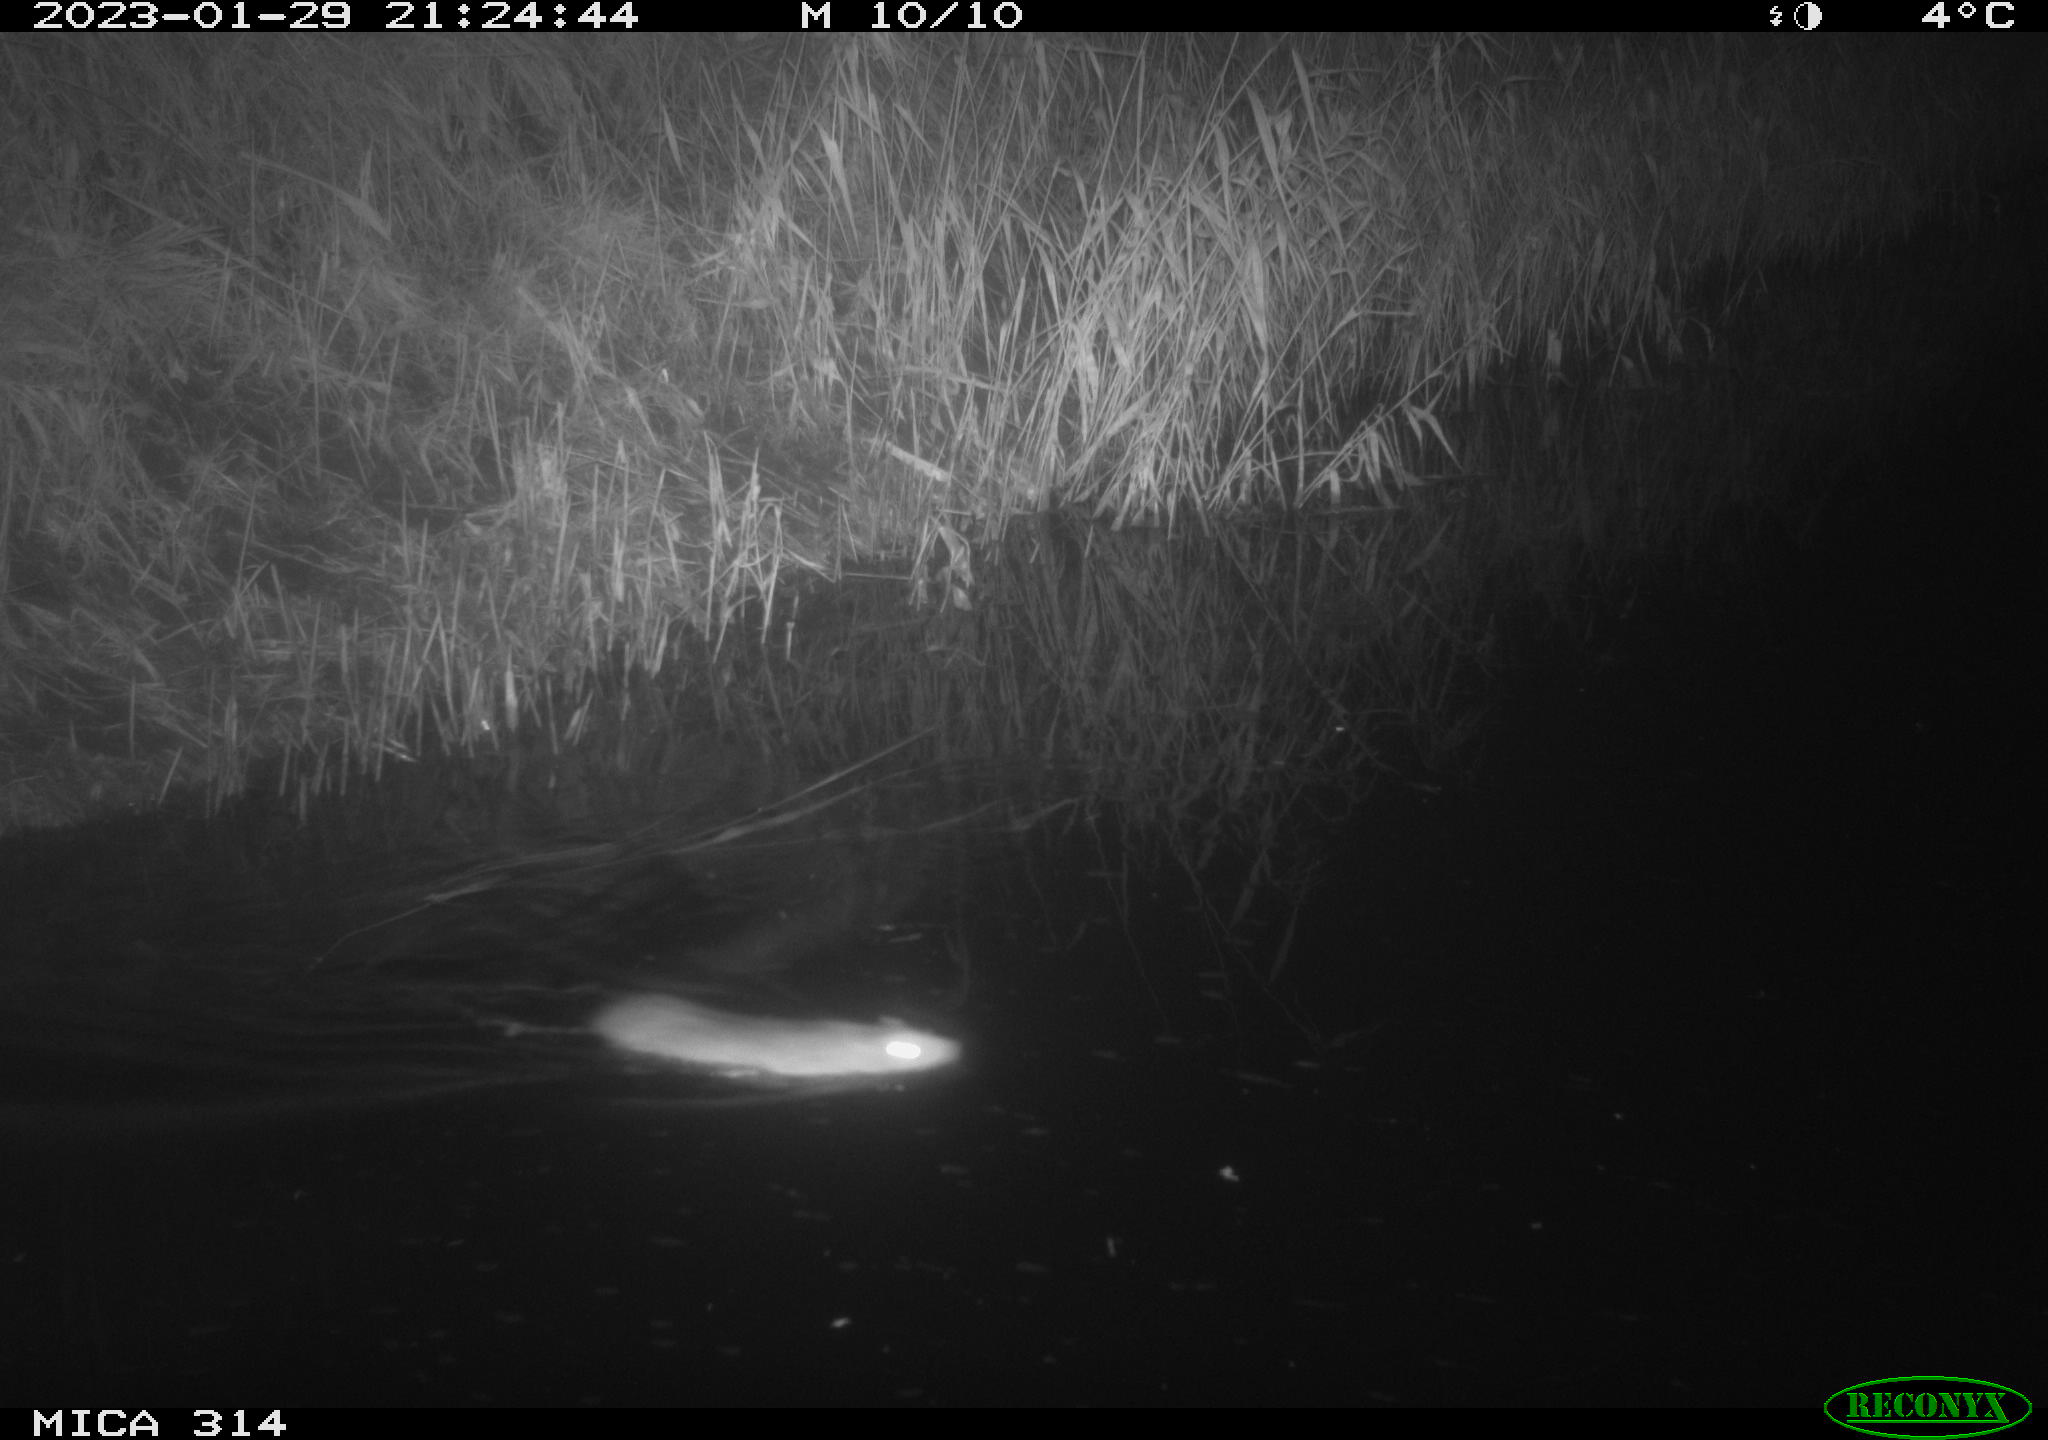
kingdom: Animalia
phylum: Chordata
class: Mammalia
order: Rodentia
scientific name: Rodentia
